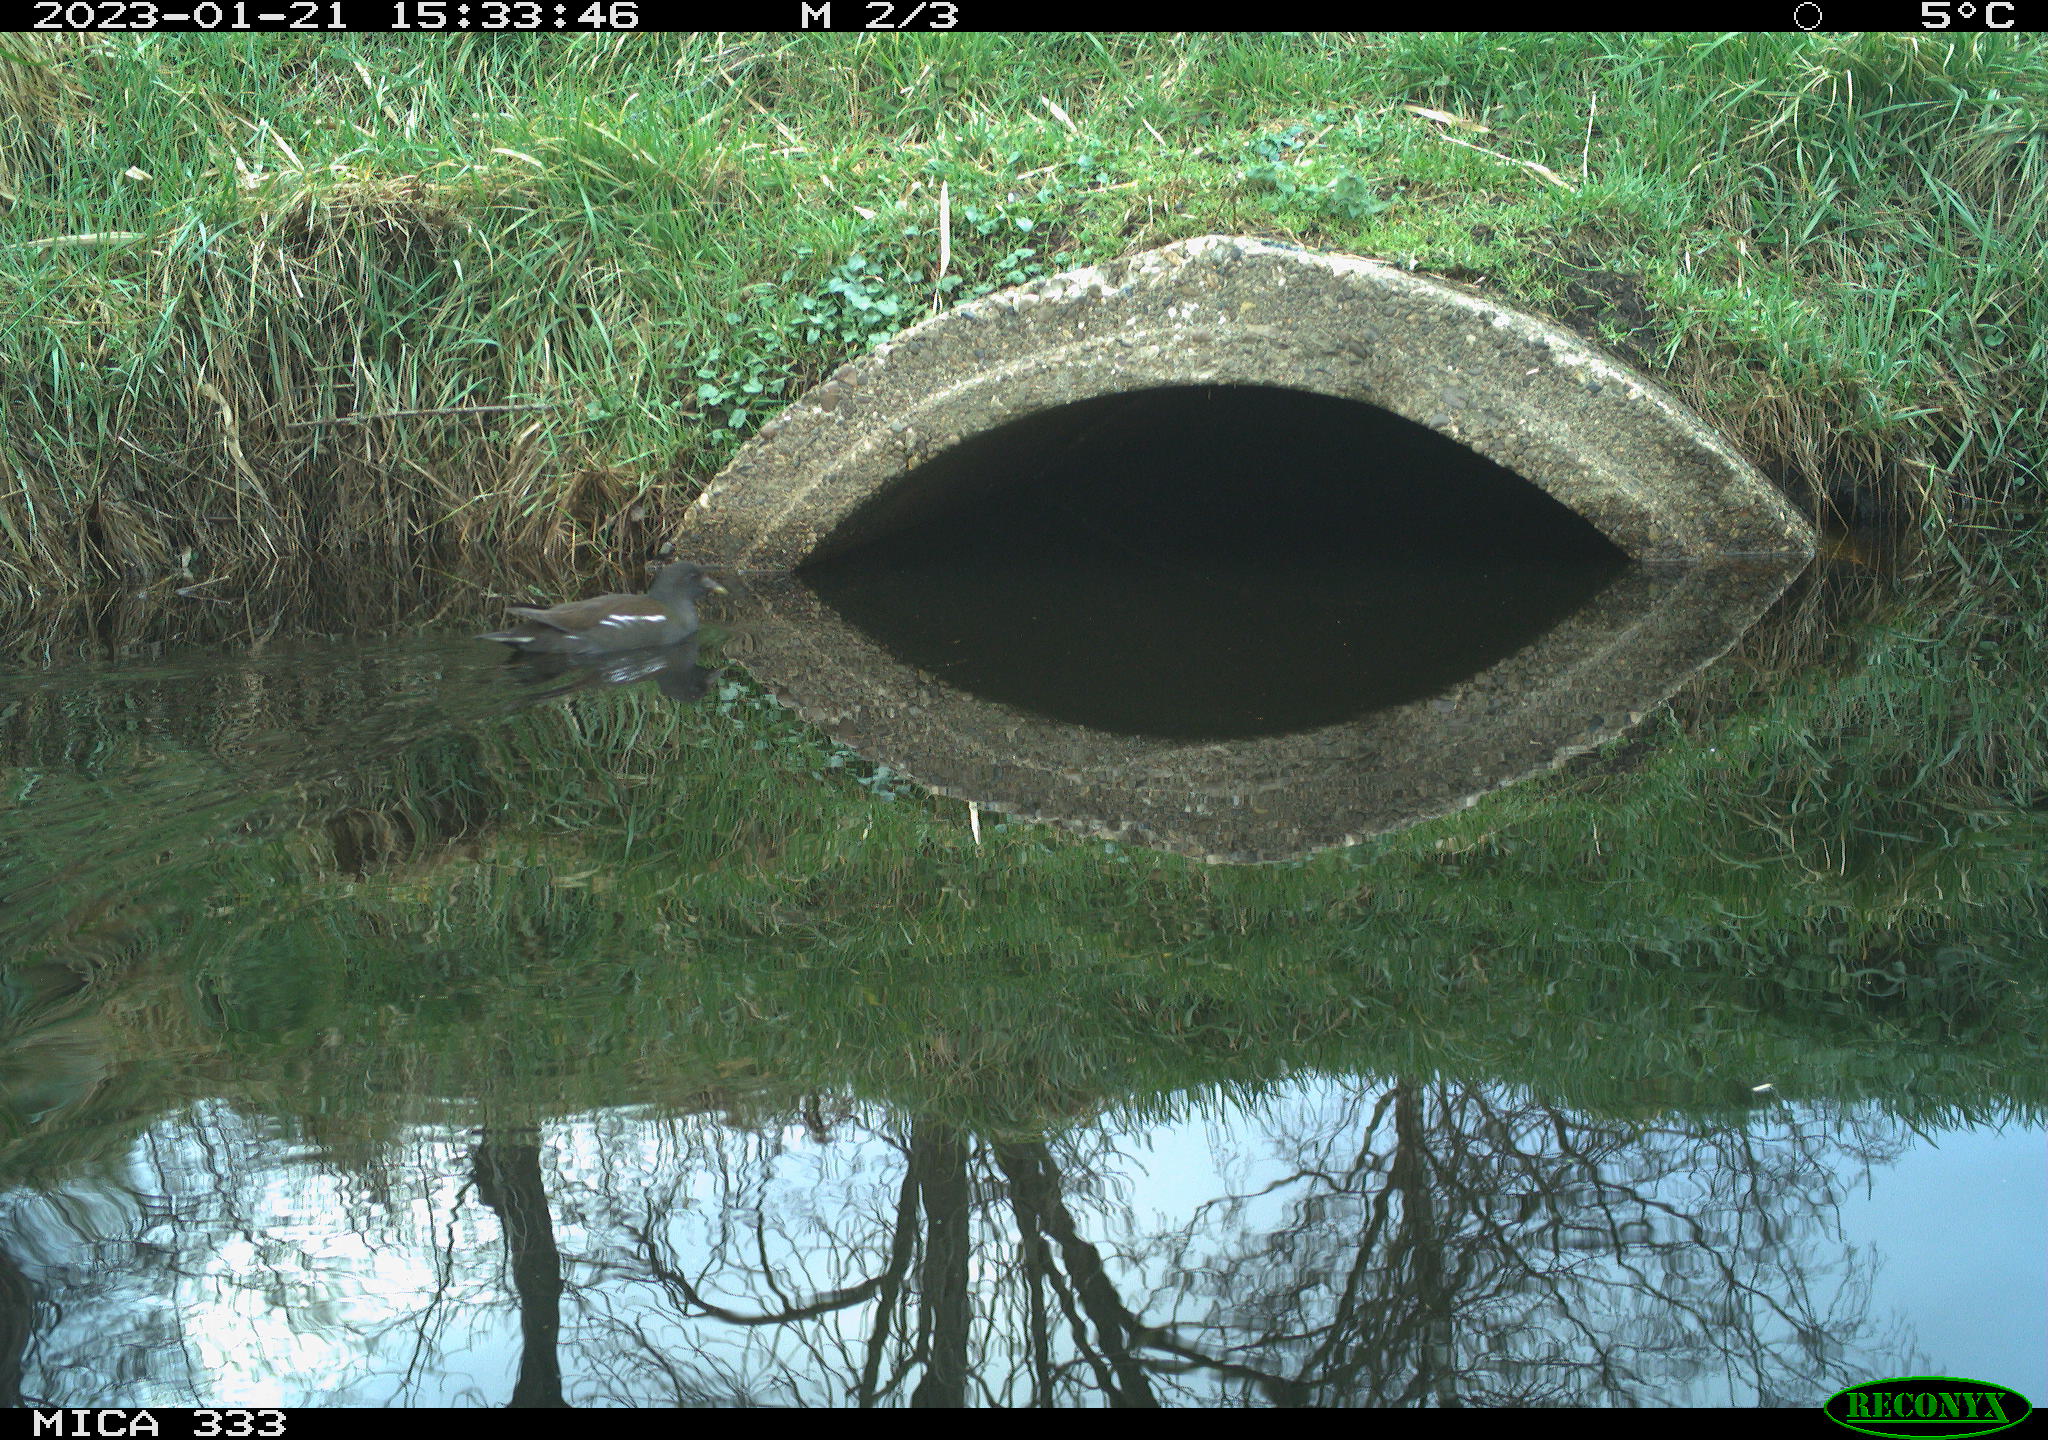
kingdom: Animalia
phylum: Chordata
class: Aves
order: Gruiformes
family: Rallidae
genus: Gallinula
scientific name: Gallinula chloropus
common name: Common moorhen
